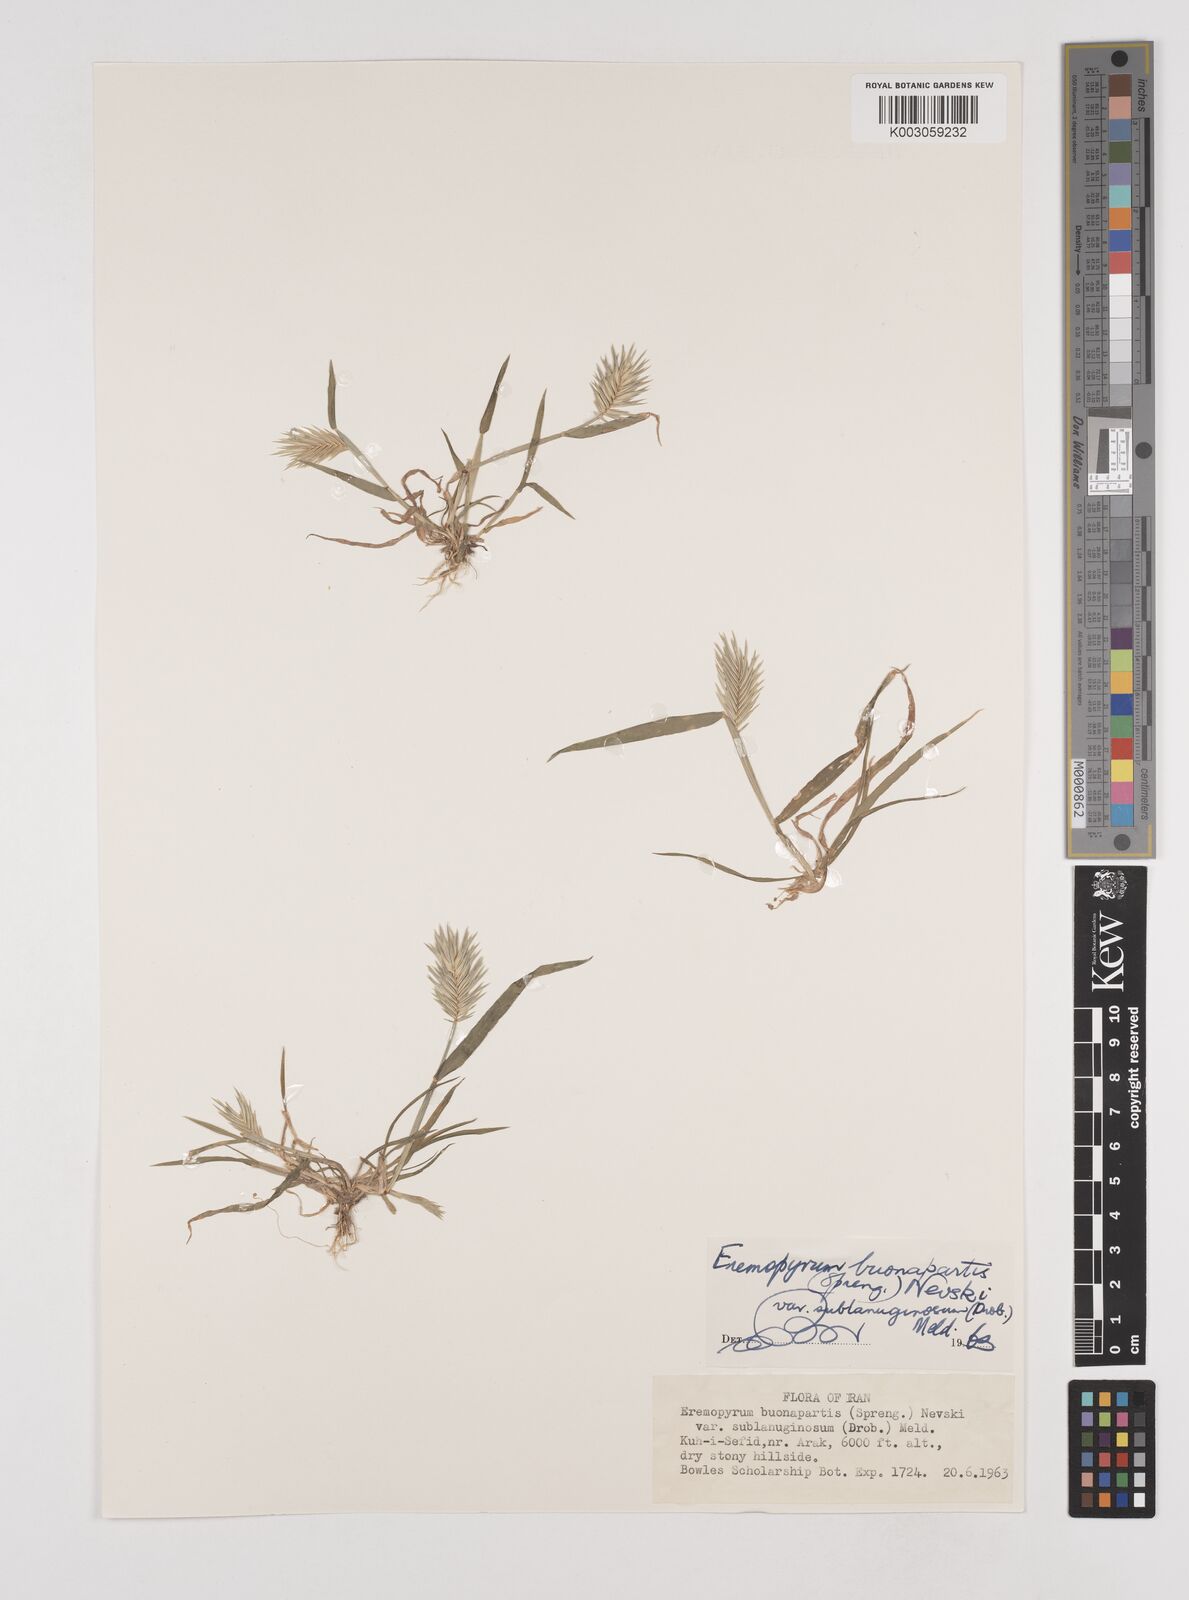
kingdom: Plantae
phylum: Tracheophyta
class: Liliopsida
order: Poales
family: Poaceae
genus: Eremopyrum
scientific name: Eremopyrum bonaepartis
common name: Tapertip false wheatgrass
